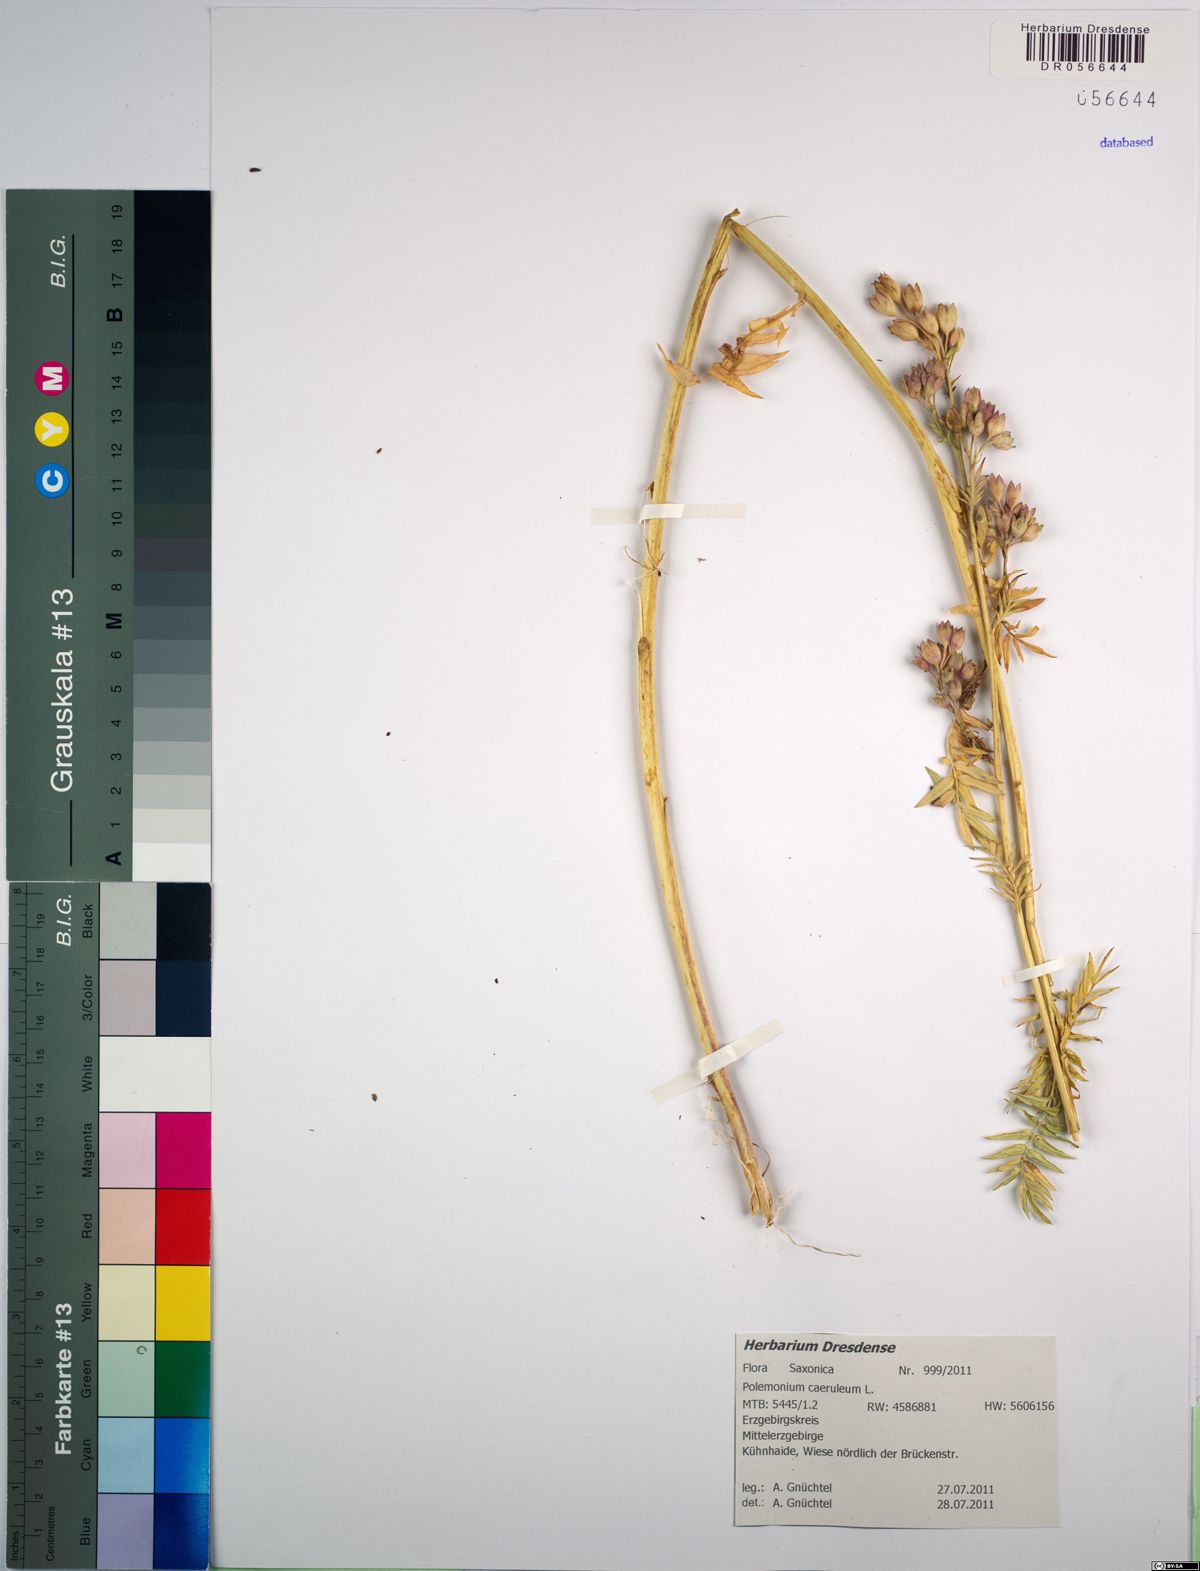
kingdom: Plantae
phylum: Tracheophyta
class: Magnoliopsida
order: Ericales
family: Polemoniaceae
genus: Polemonium
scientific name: Polemonium caeruleum
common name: Jacob's-ladder
